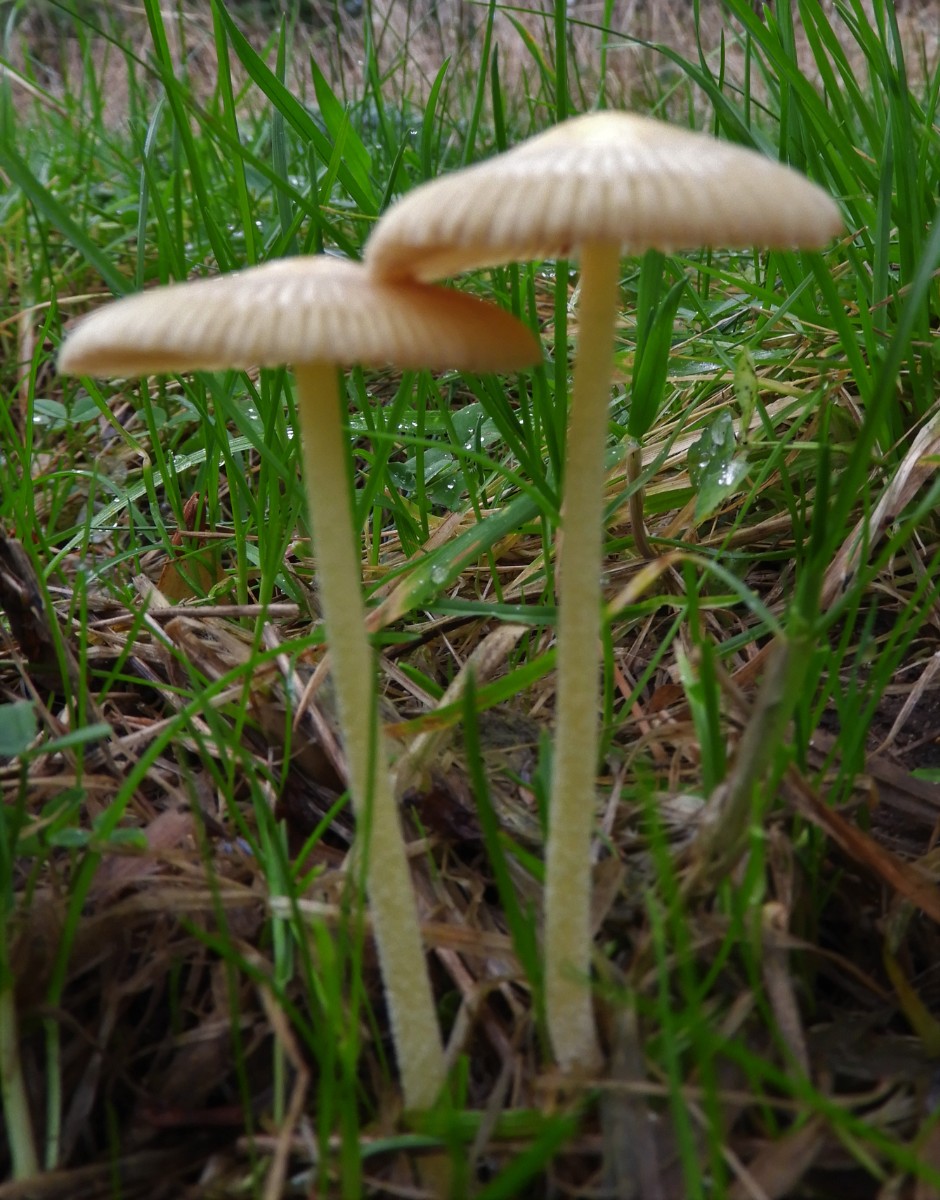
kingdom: Fungi
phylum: Basidiomycota
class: Agaricomycetes
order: Agaricales
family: Bolbitiaceae
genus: Bolbitius
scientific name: Bolbitius titubans
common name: almindelig gulhat
